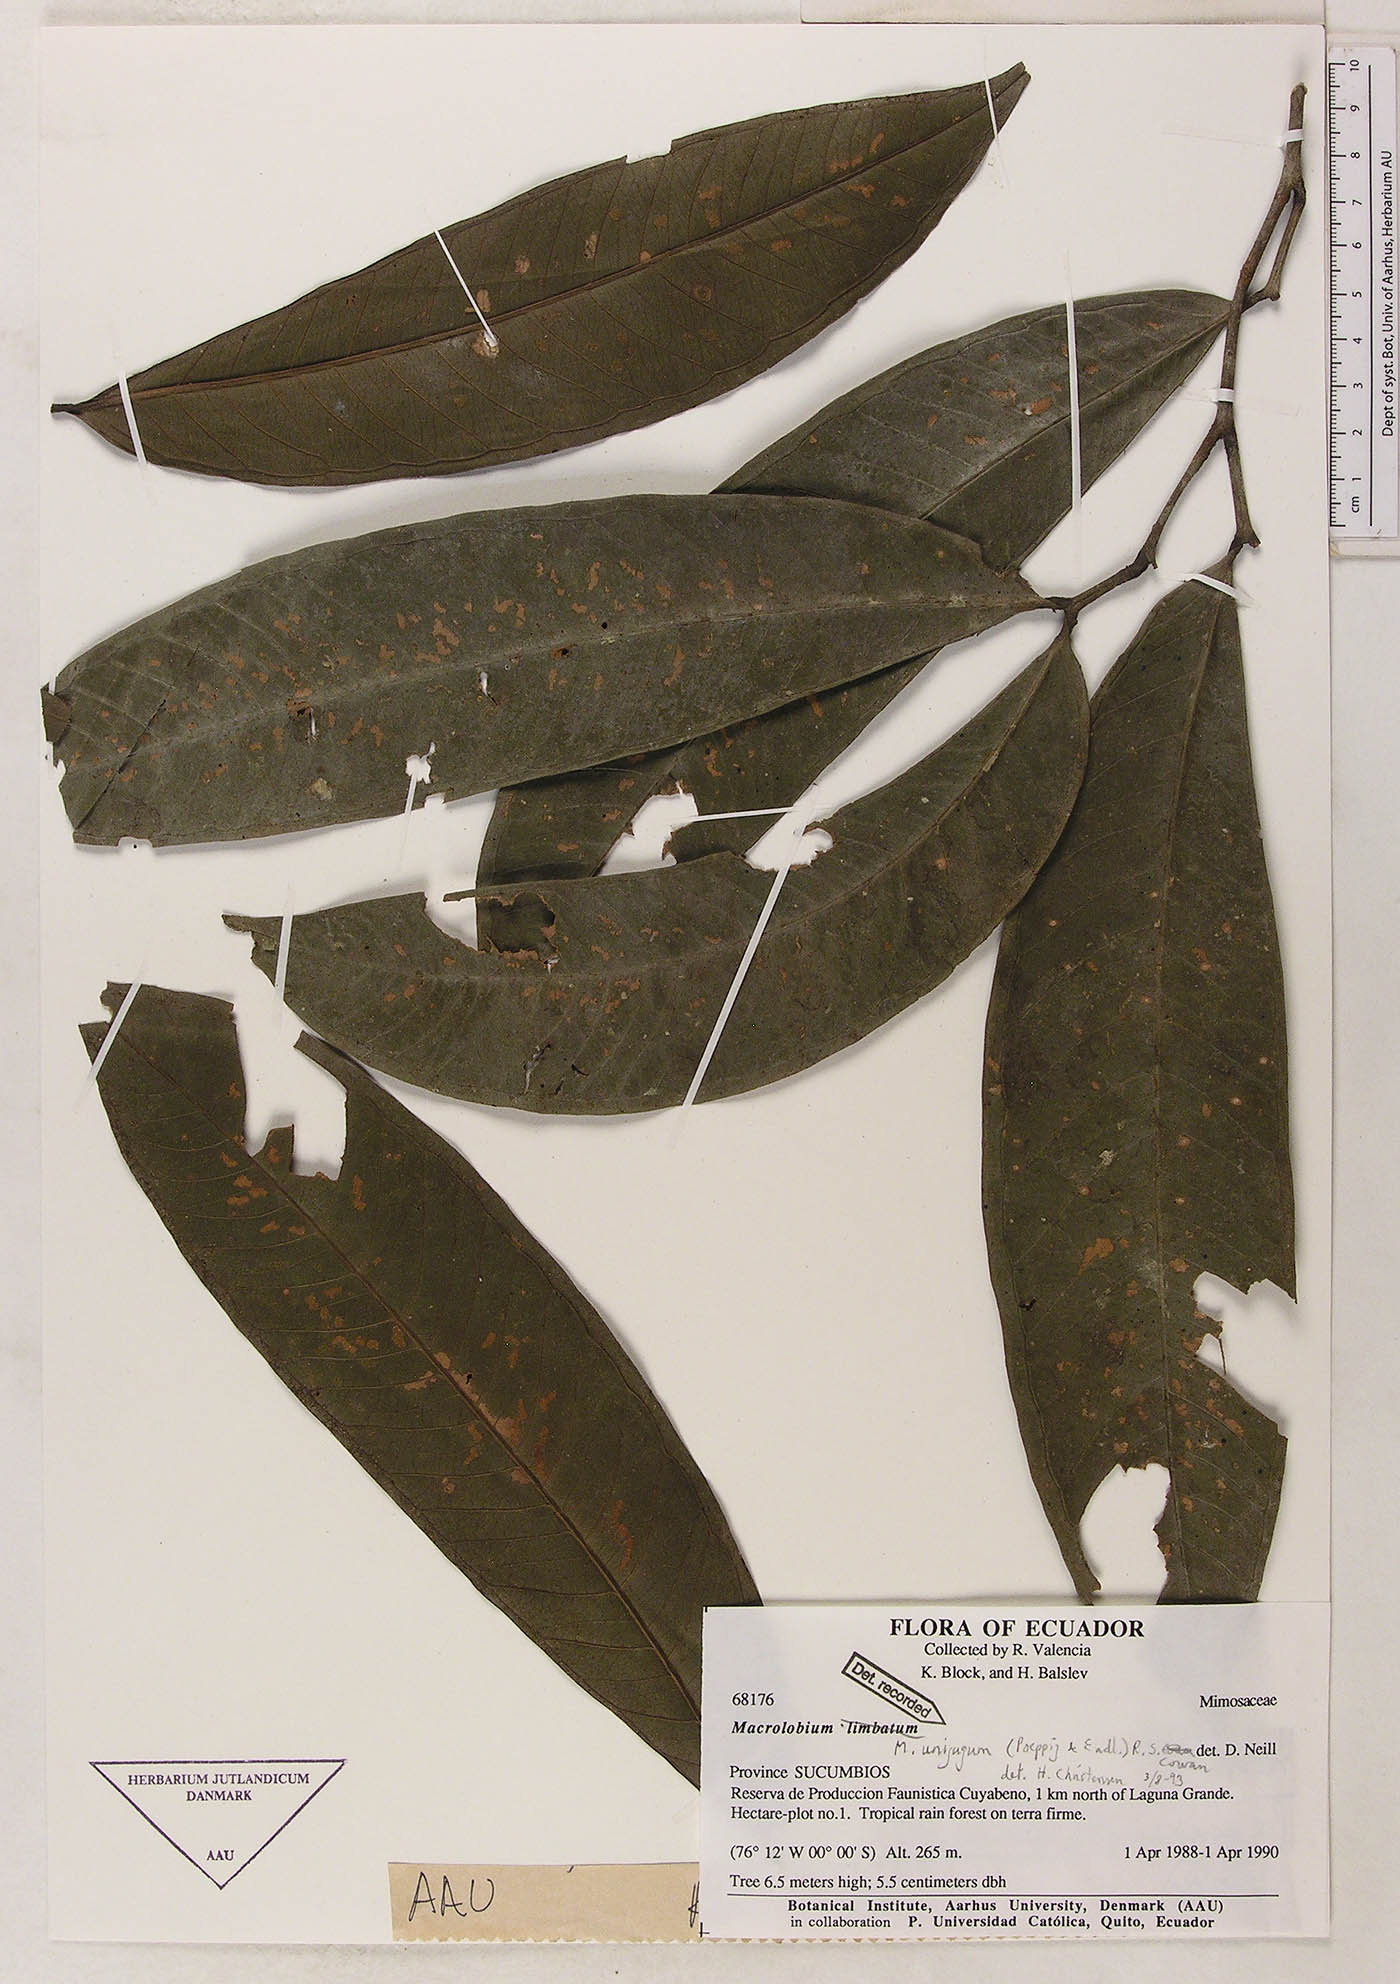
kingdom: Plantae
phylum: Tracheophyta
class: Magnoliopsida
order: Fabales
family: Fabaceae
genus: Macrolobium
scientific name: Macrolobium limbatum
